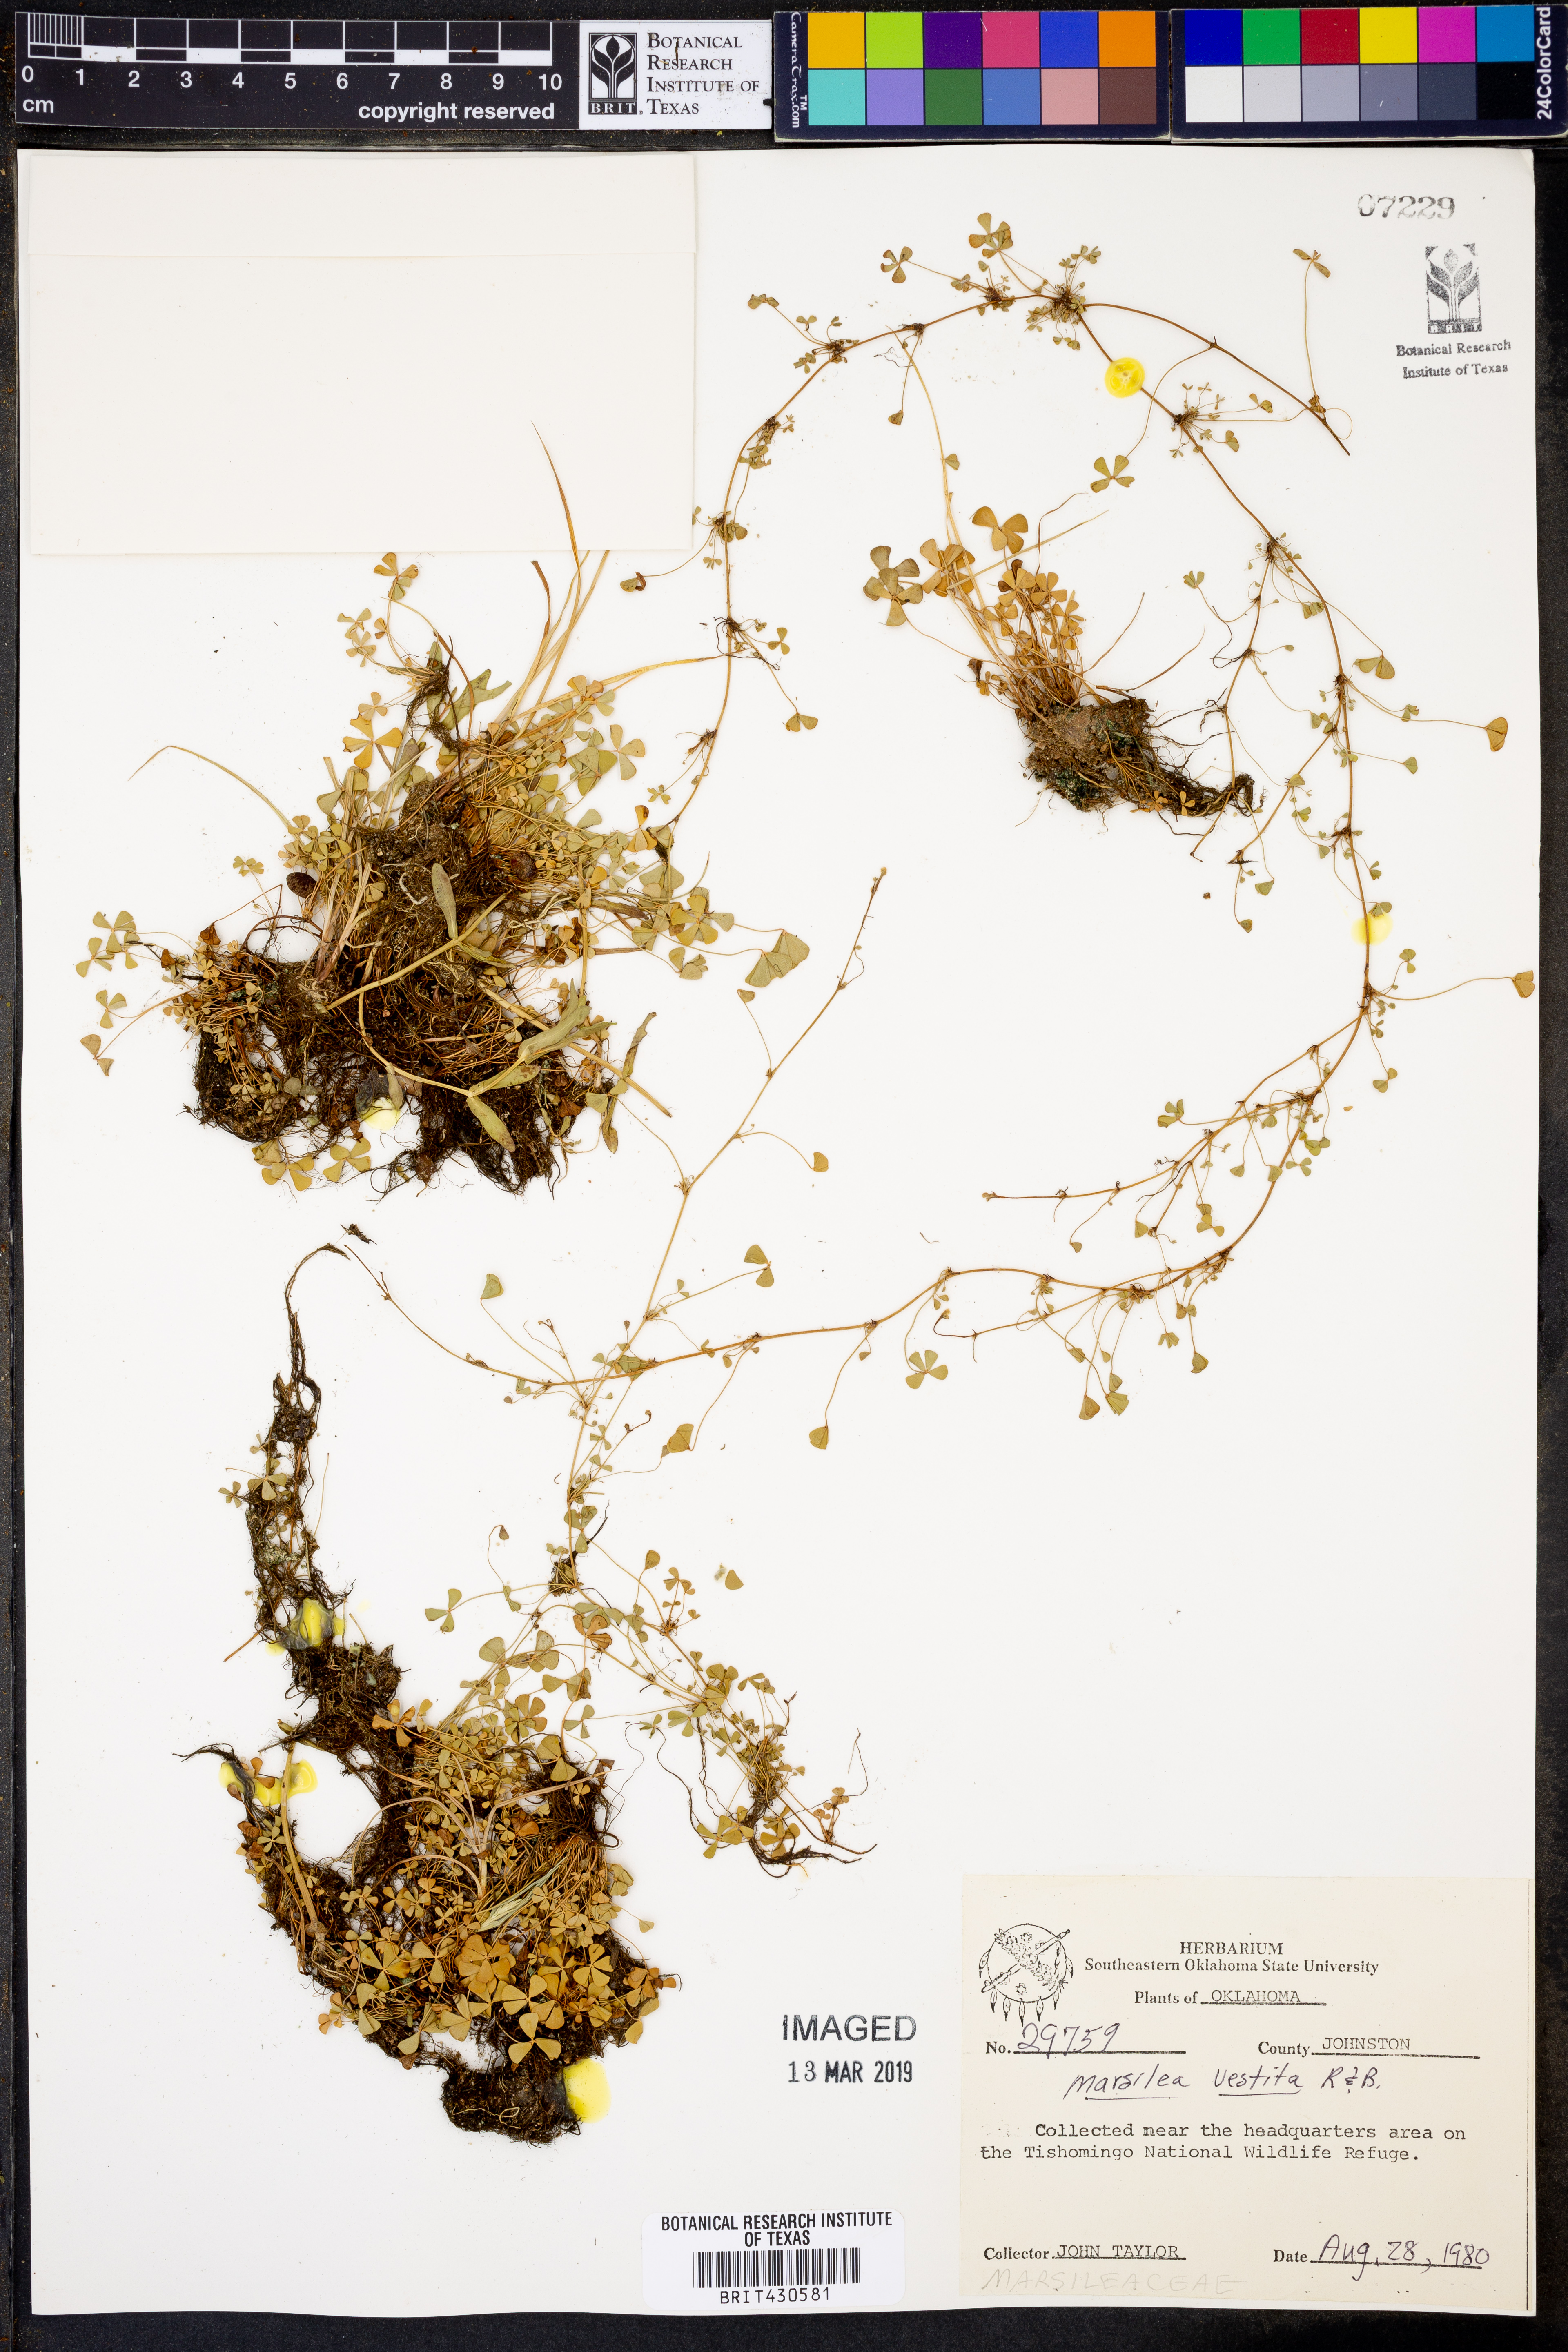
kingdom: Plantae
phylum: Tracheophyta
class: Polypodiopsida
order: Salviniales
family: Marsileaceae
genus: Marsilea
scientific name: Marsilea vestita
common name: Hooked-pepperwort
